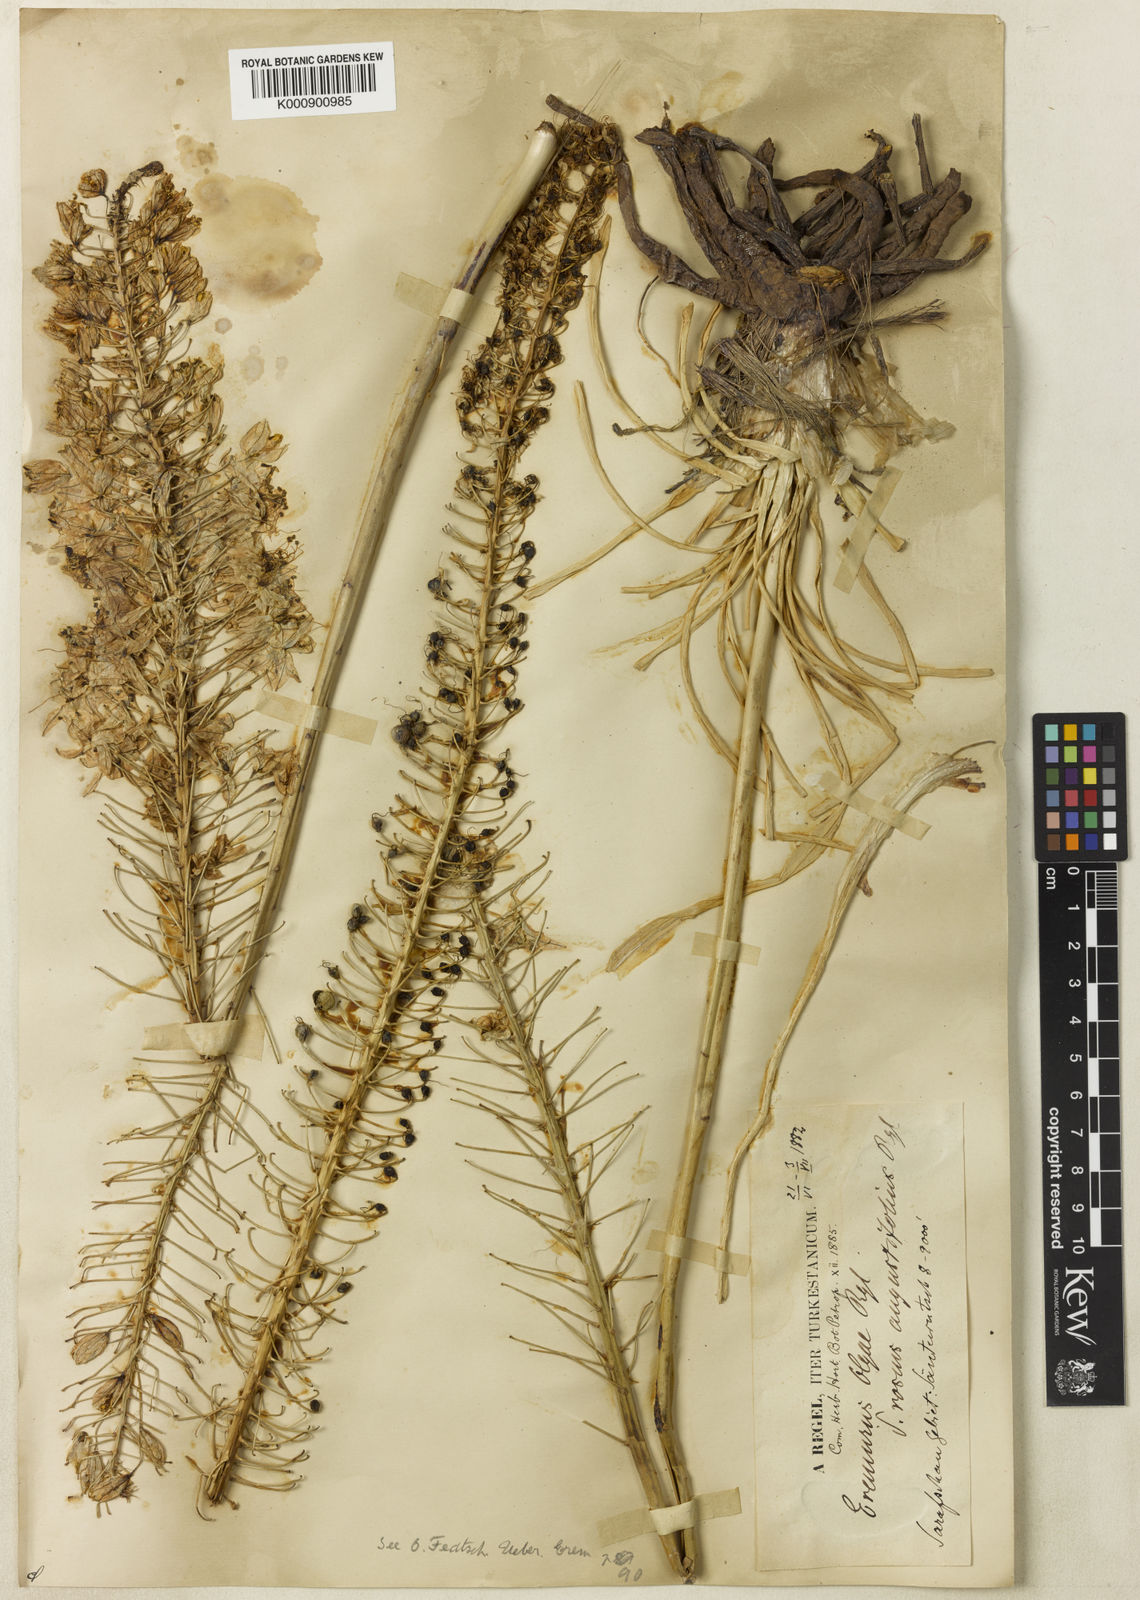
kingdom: Plantae
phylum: Tracheophyta
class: Liliopsida
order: Asparagales
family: Asphodelaceae
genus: Eremurus
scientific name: Eremurus olgae
